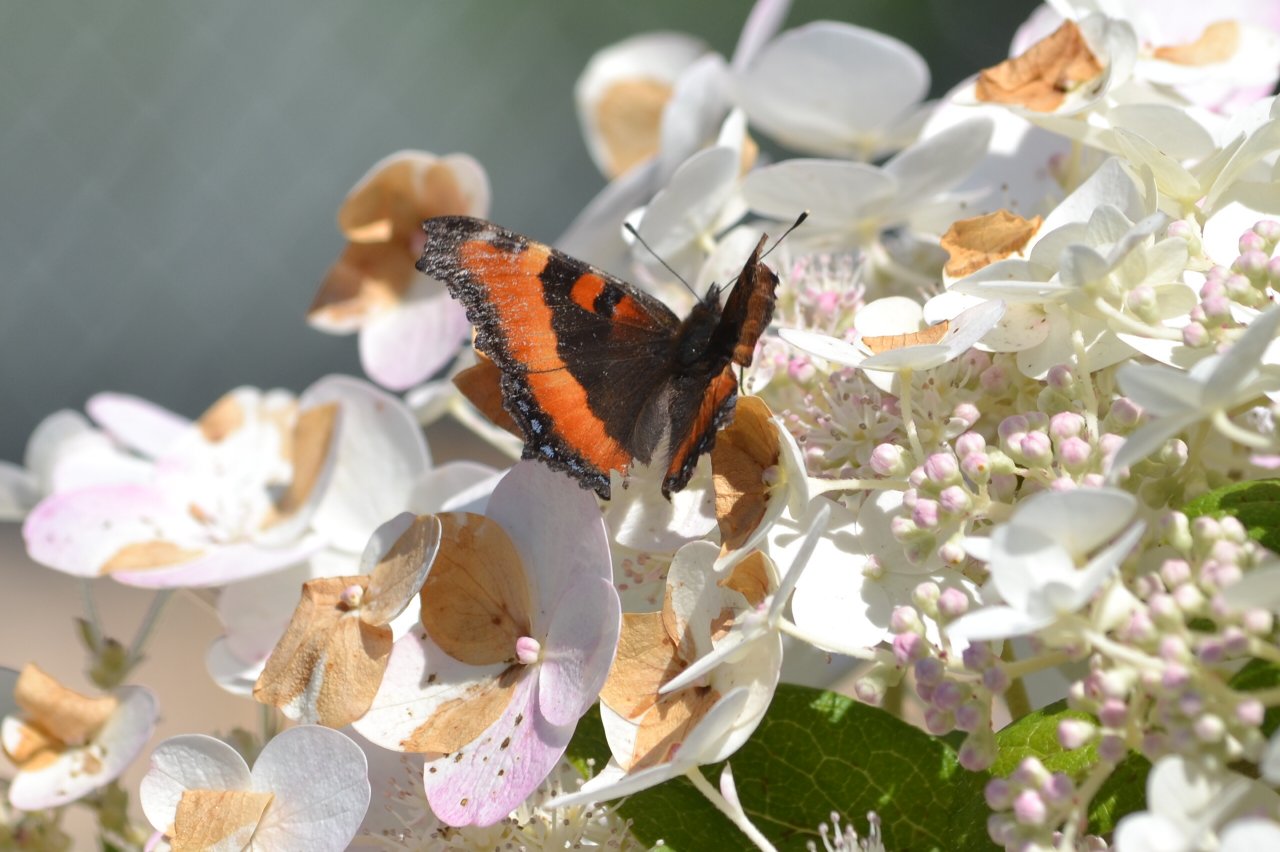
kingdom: Animalia
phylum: Arthropoda
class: Insecta
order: Lepidoptera
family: Nymphalidae
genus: Aglais
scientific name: Aglais milberti
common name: Milbert's Tortoiseshell
